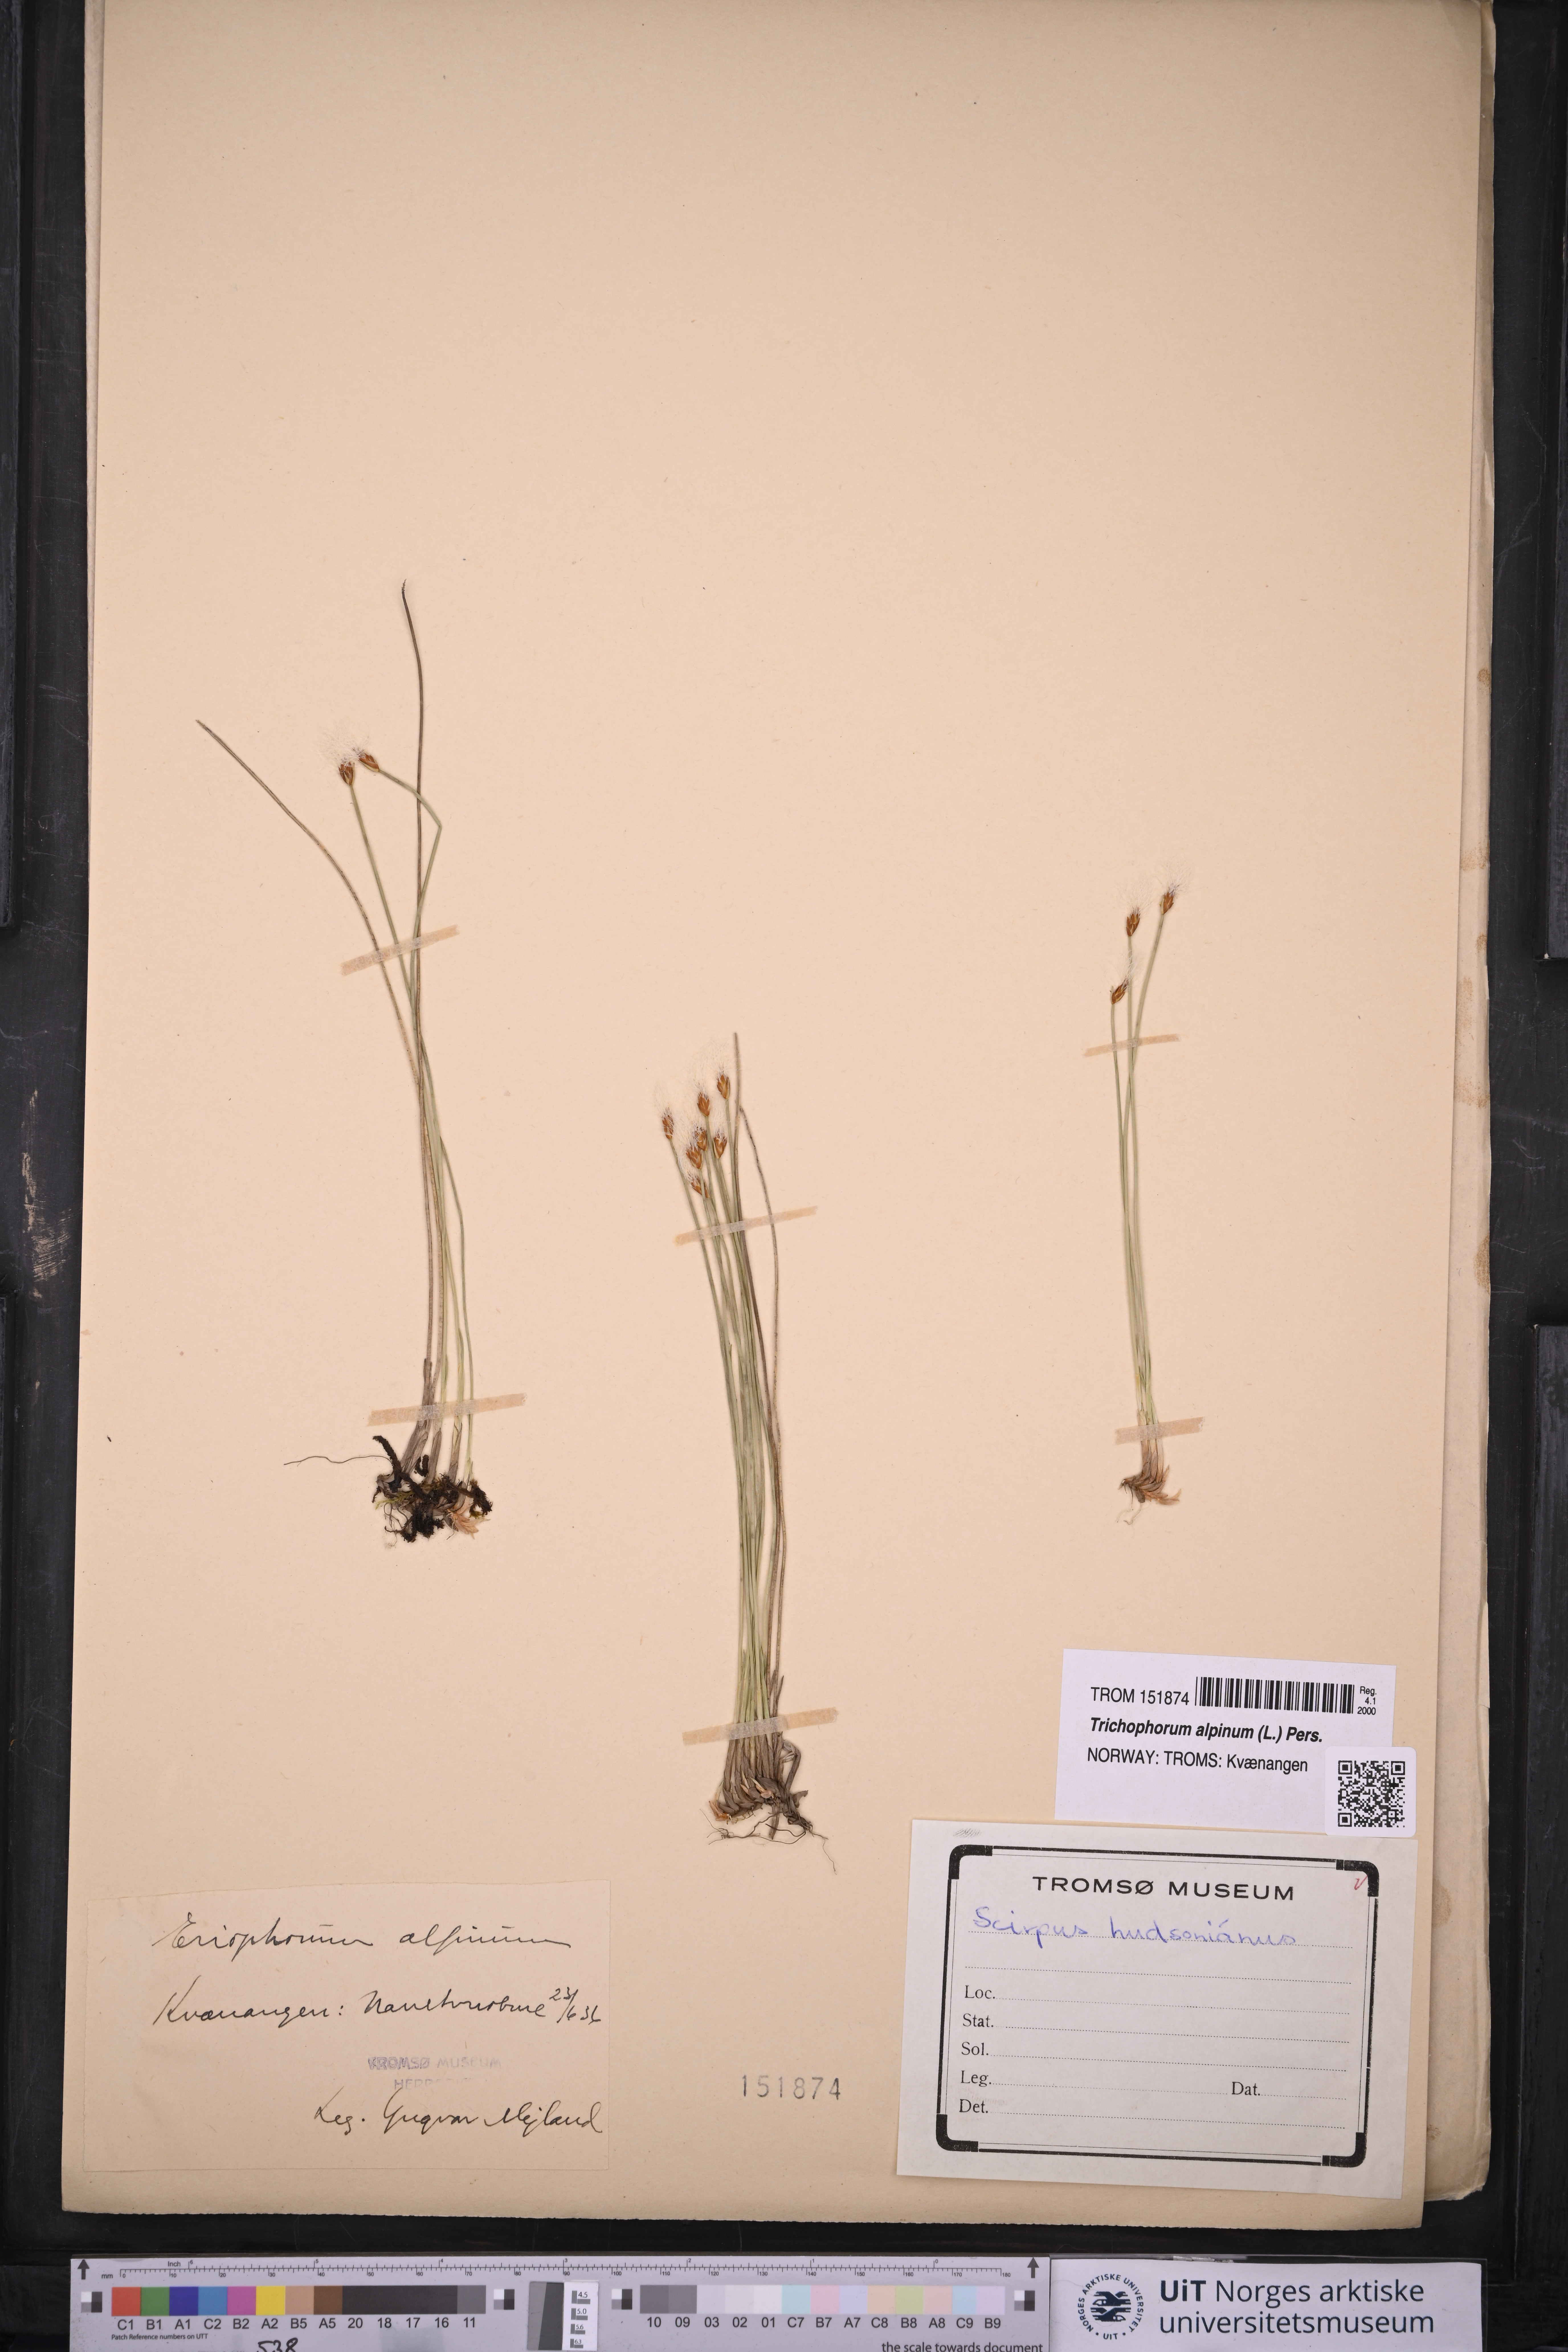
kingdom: Plantae
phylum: Tracheophyta
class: Liliopsida
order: Poales
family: Cyperaceae
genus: Trichophorum
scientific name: Trichophorum alpinum
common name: Alpine bulrush
